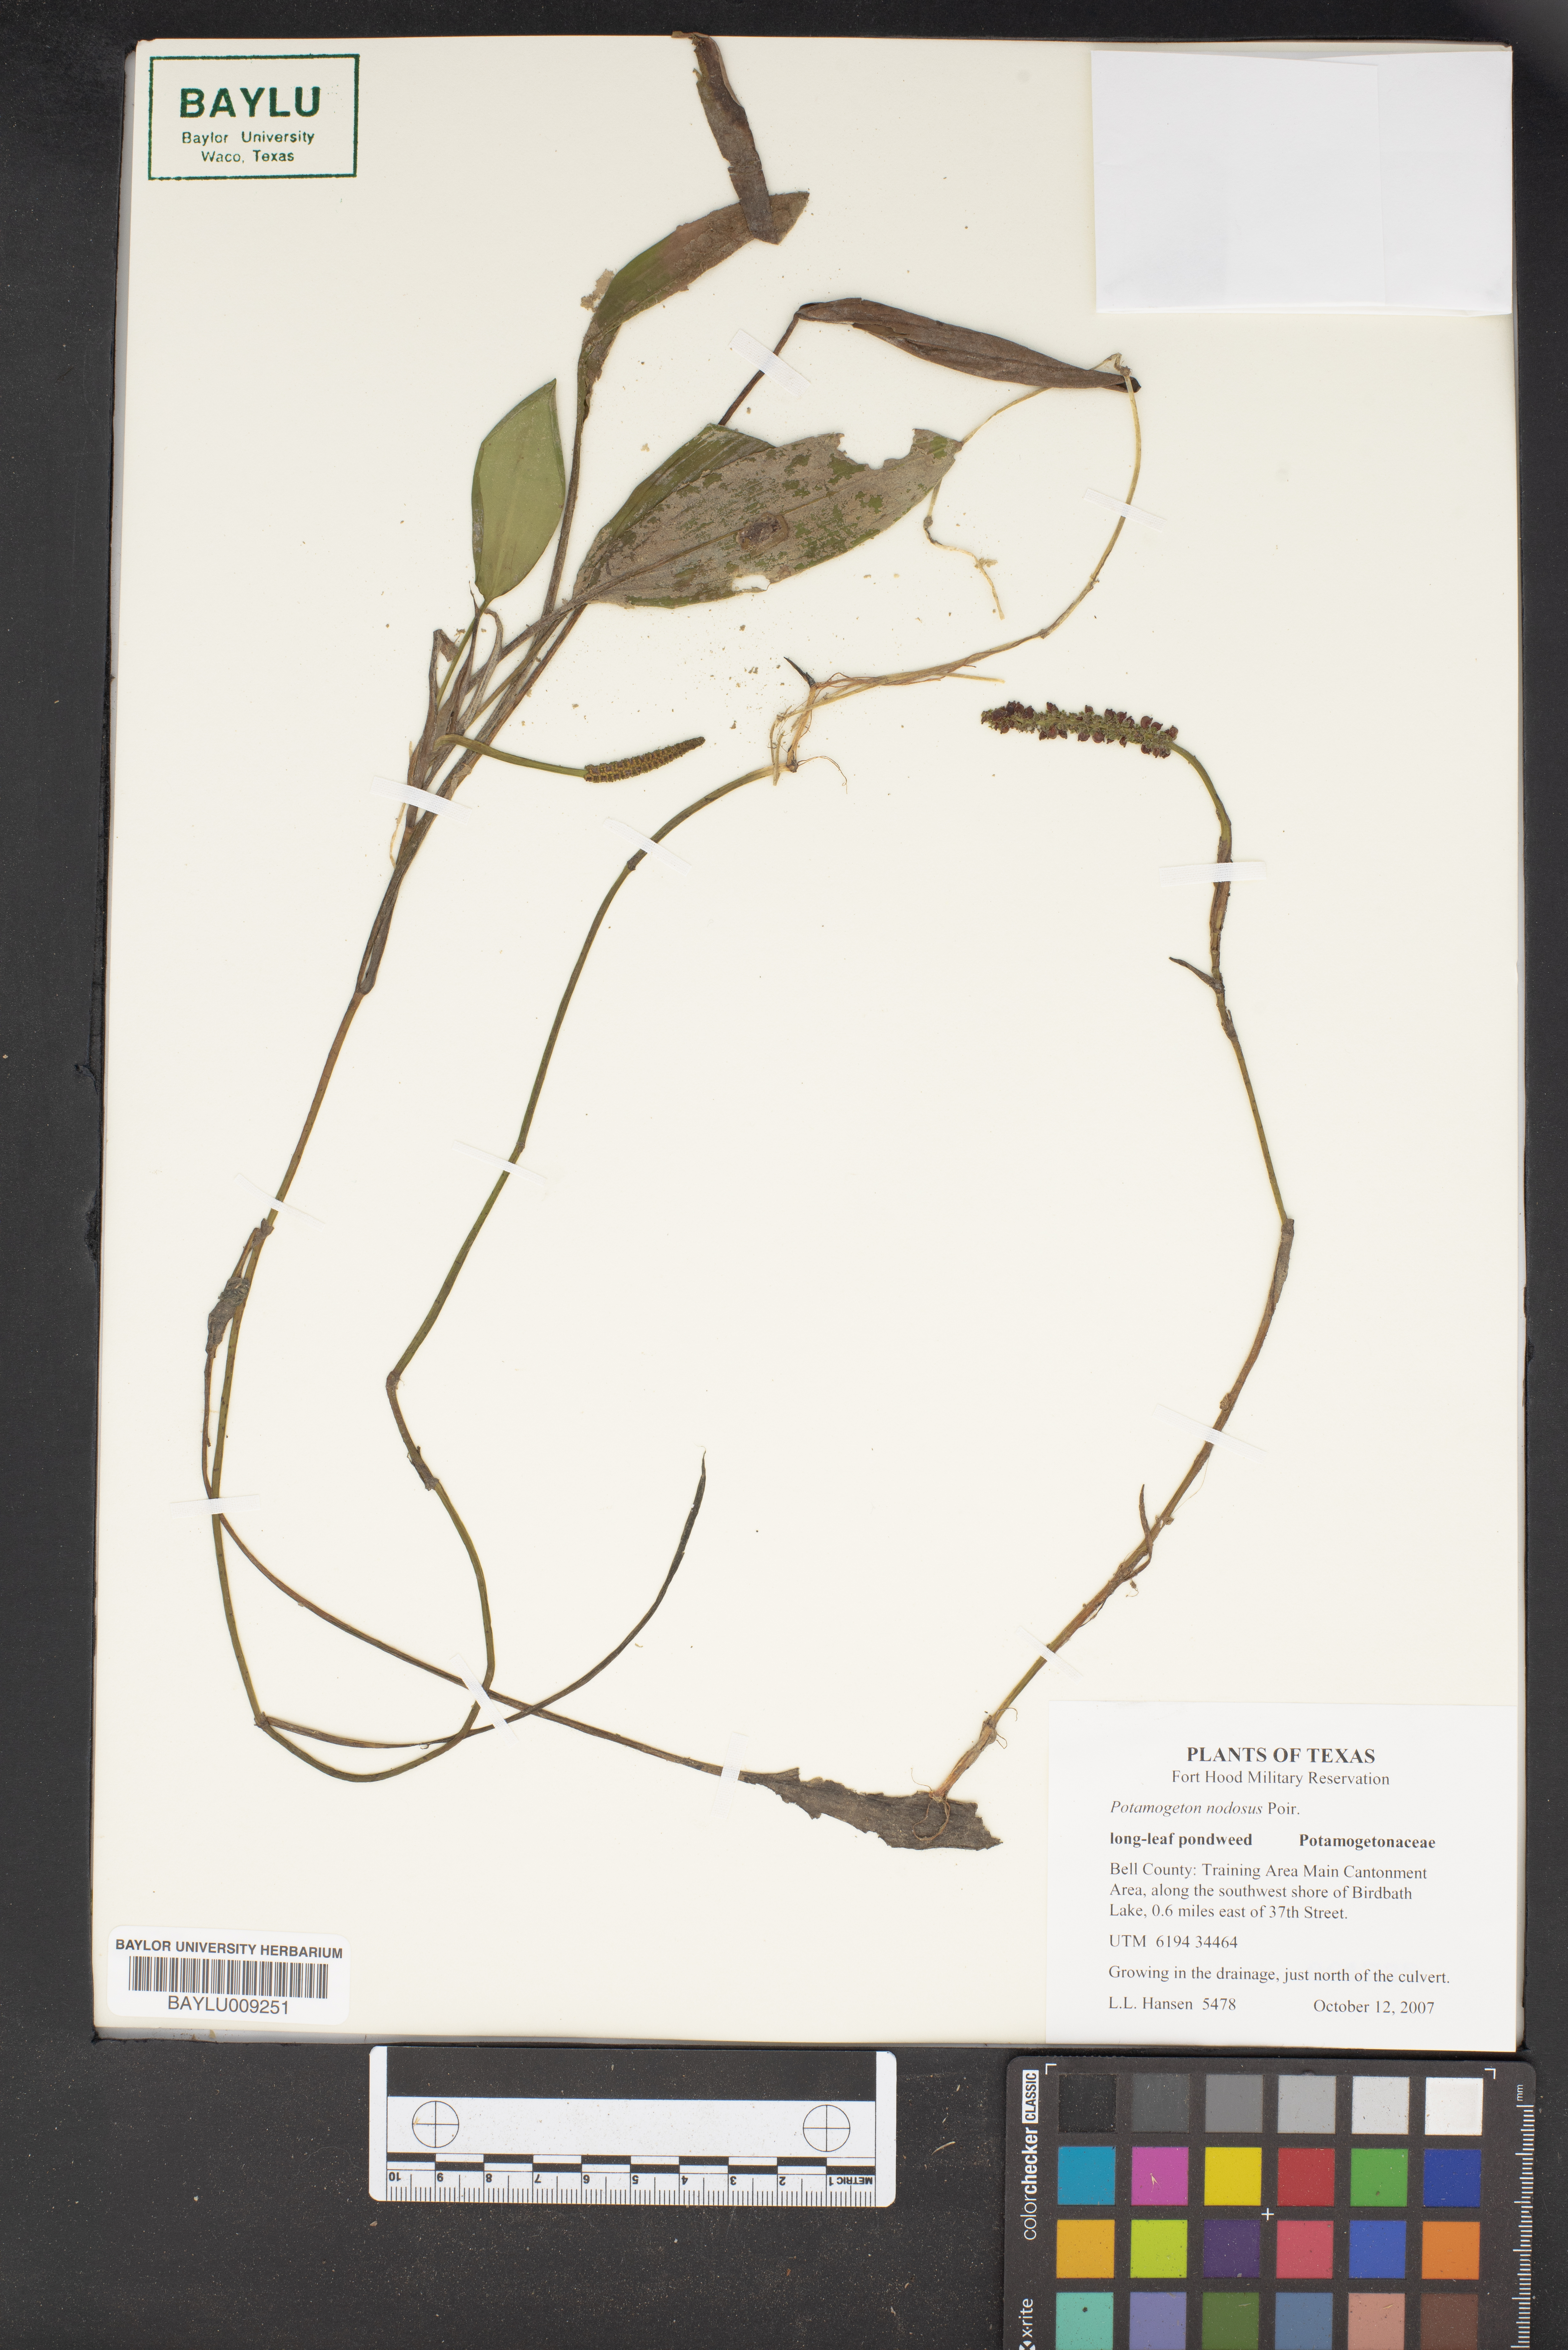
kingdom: Plantae
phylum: Tracheophyta
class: Liliopsida
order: Alismatales
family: Potamogetonaceae
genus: Potamogeton
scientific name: Potamogeton nodosus
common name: Loddon pondweed
